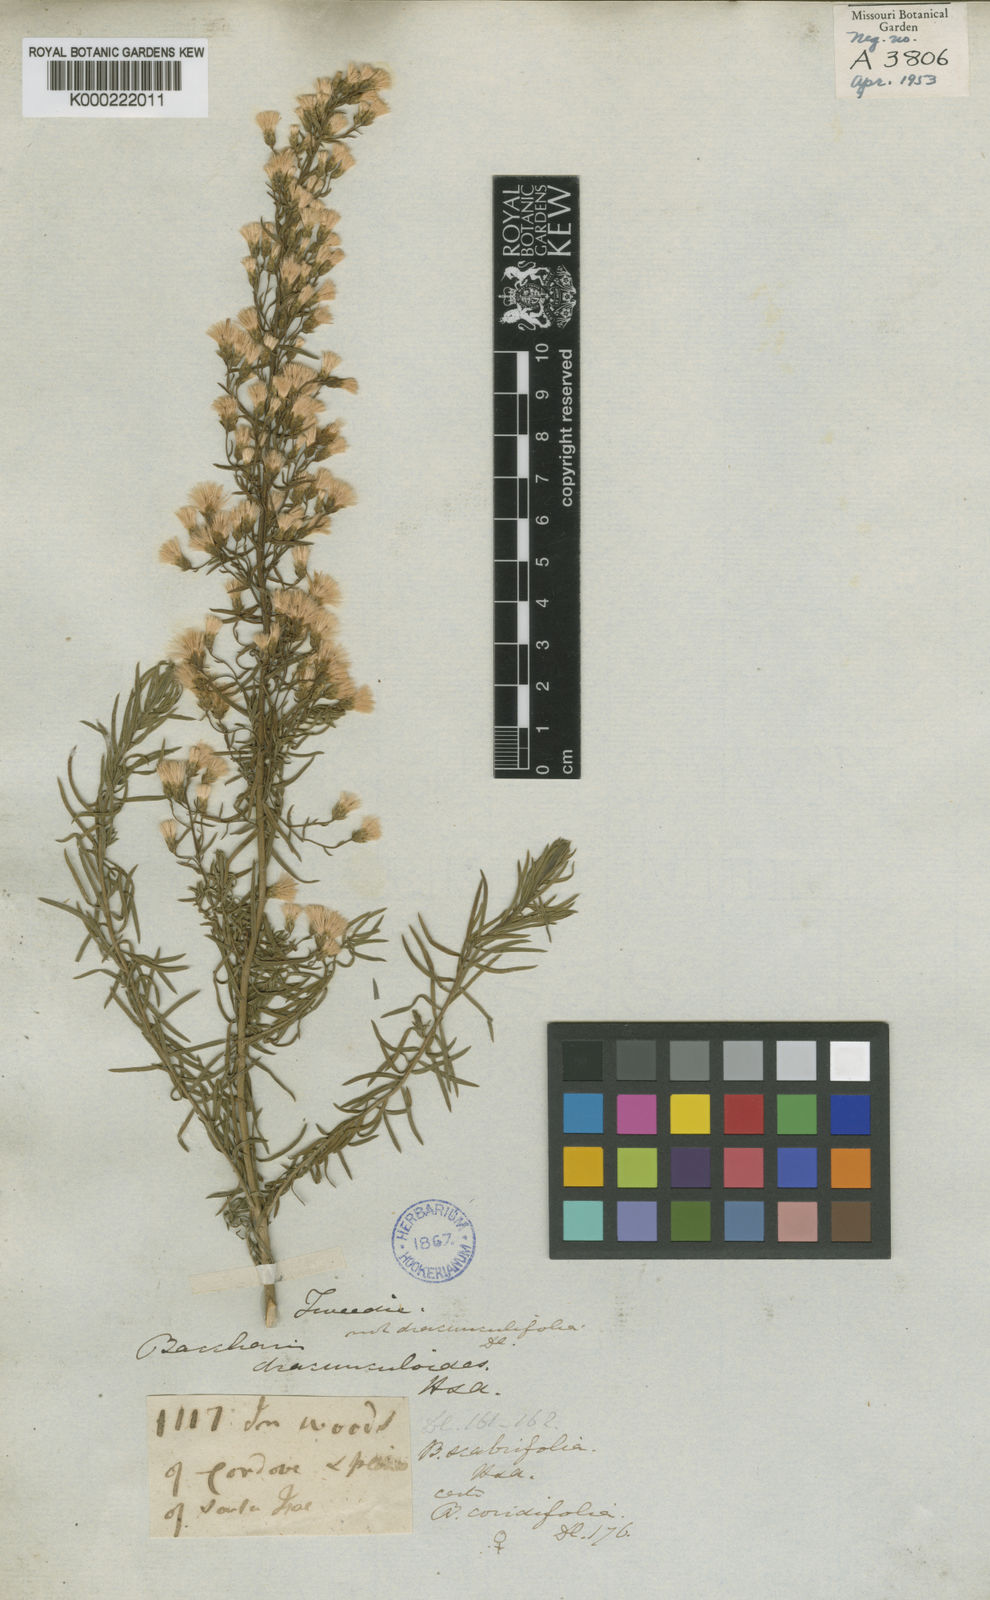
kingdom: Plantae
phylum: Tracheophyta
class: Magnoliopsida
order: Asterales
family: Asteraceae
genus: Baccharis
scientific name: Baccharis coridifolia
